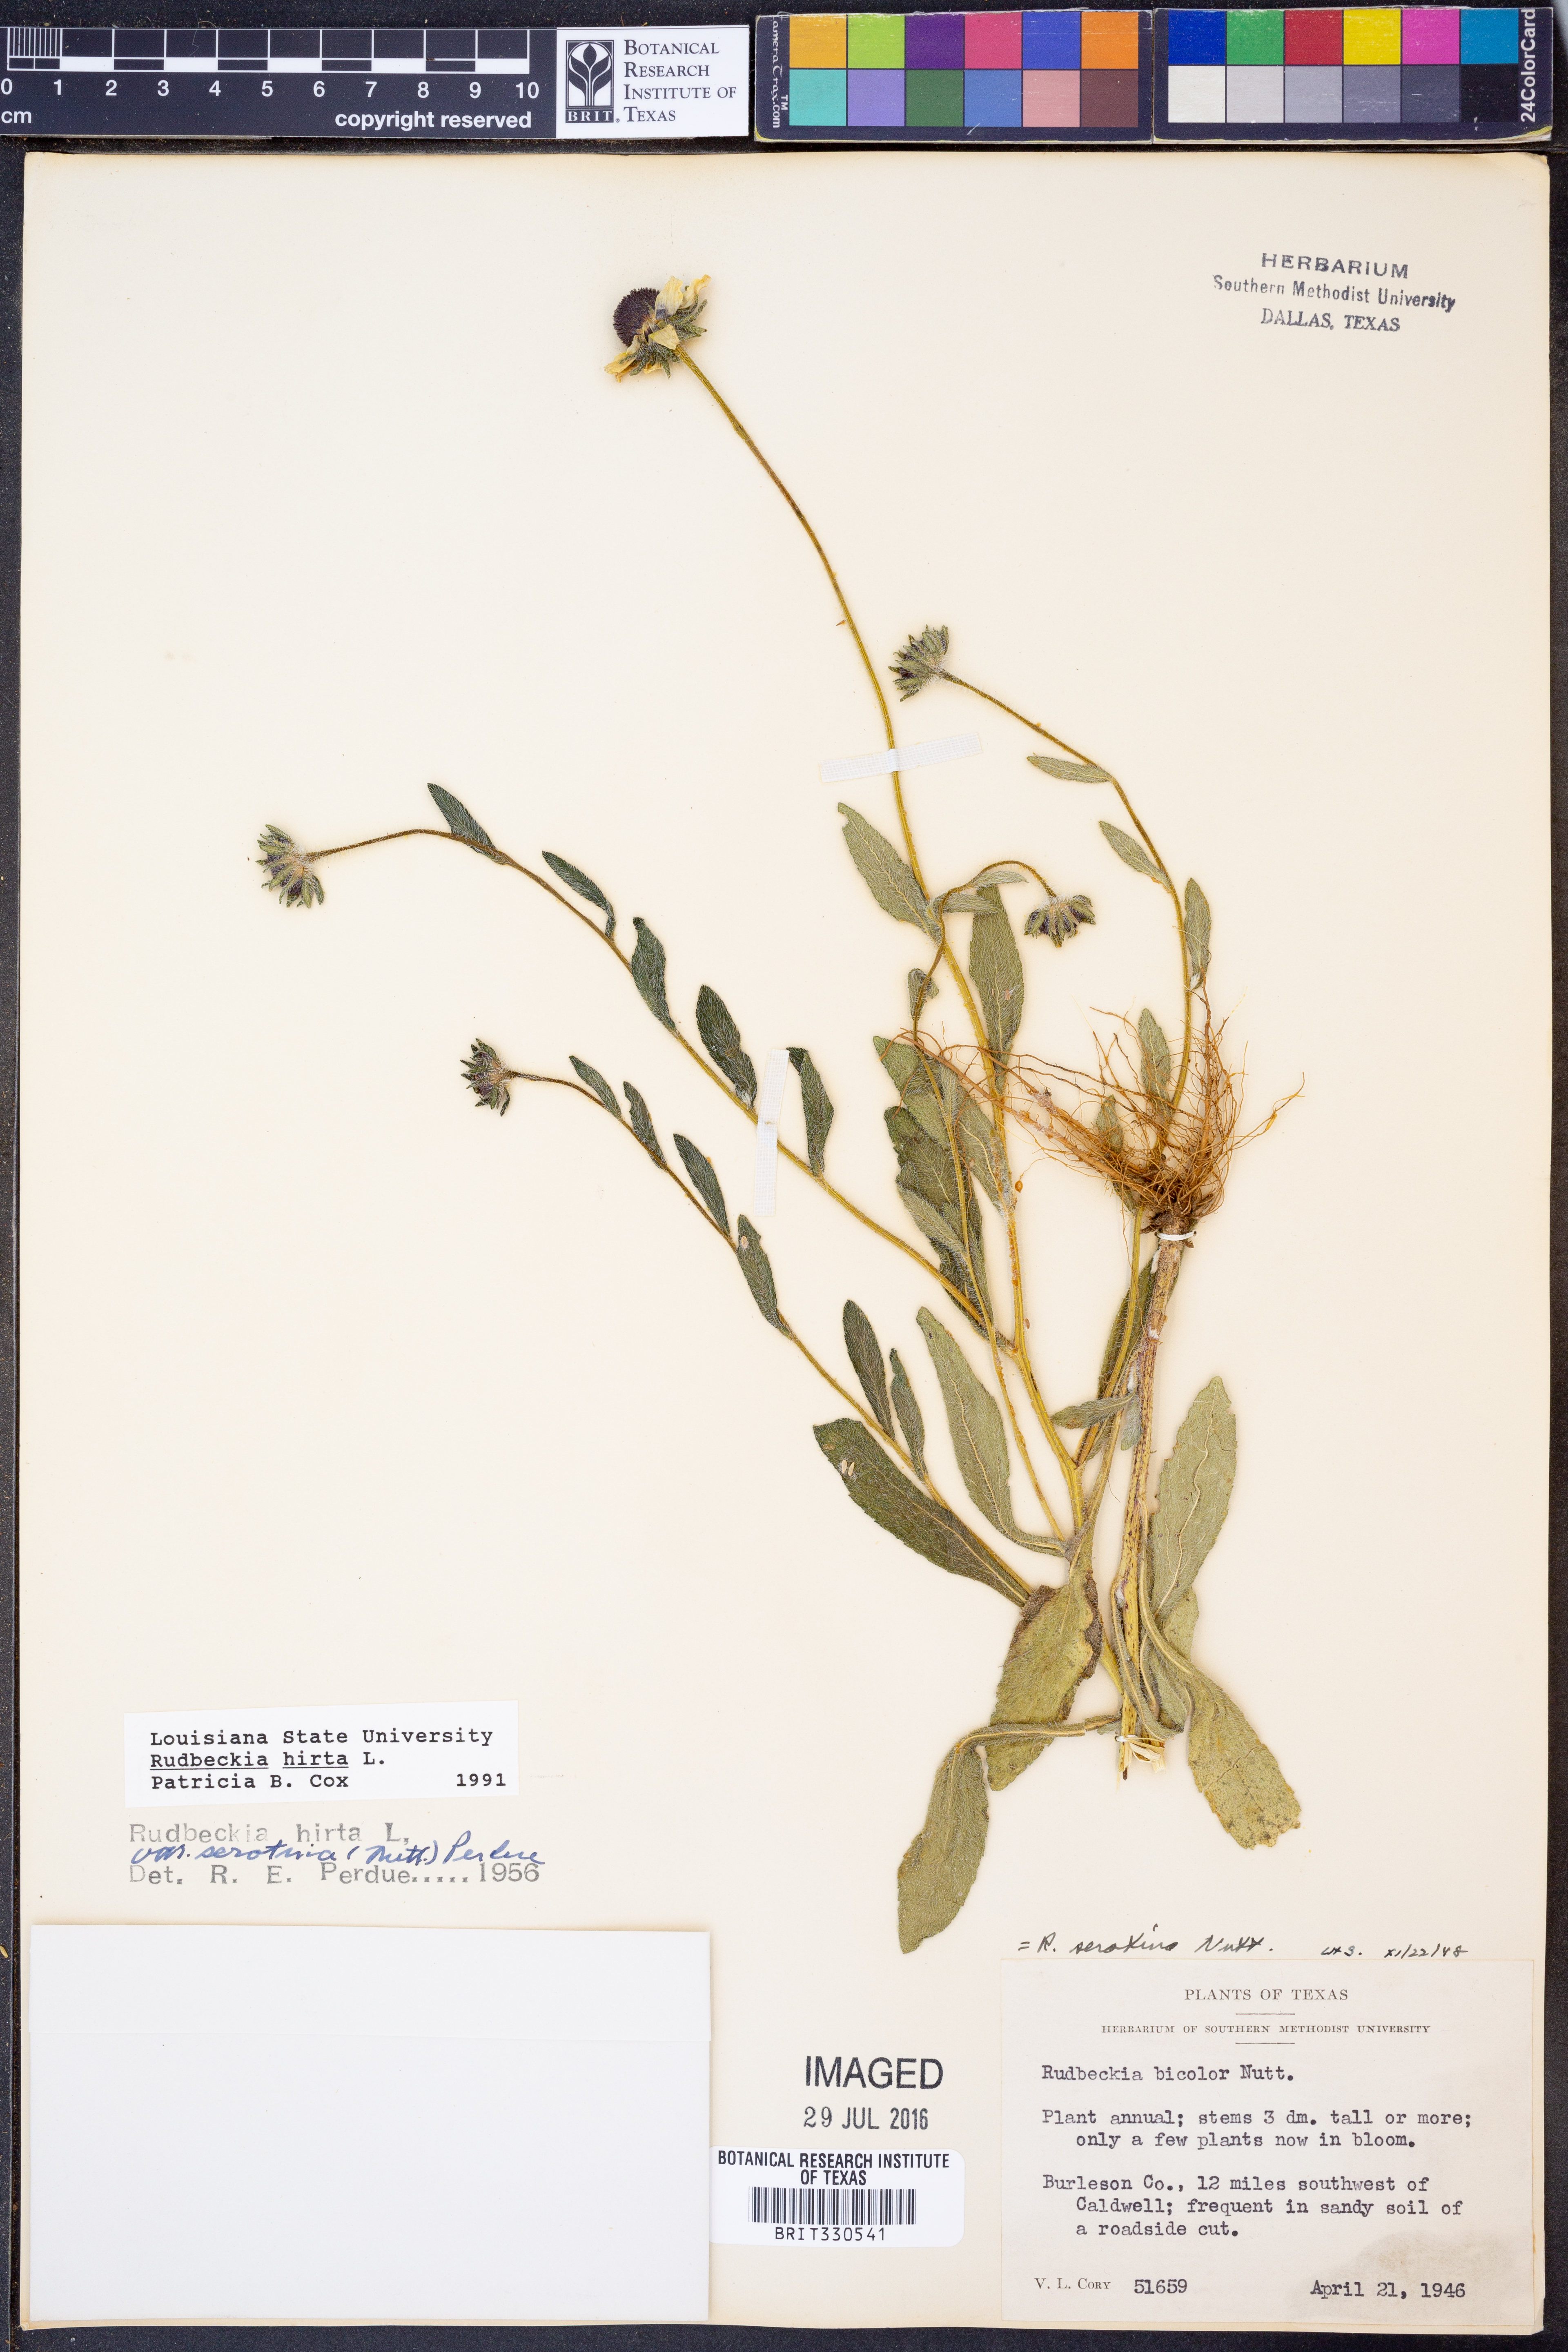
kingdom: Plantae
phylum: Tracheophyta
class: Magnoliopsida
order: Asterales
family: Asteraceae
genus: Rudbeckia
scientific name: Rudbeckia hirta
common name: Black-eyed-susan
